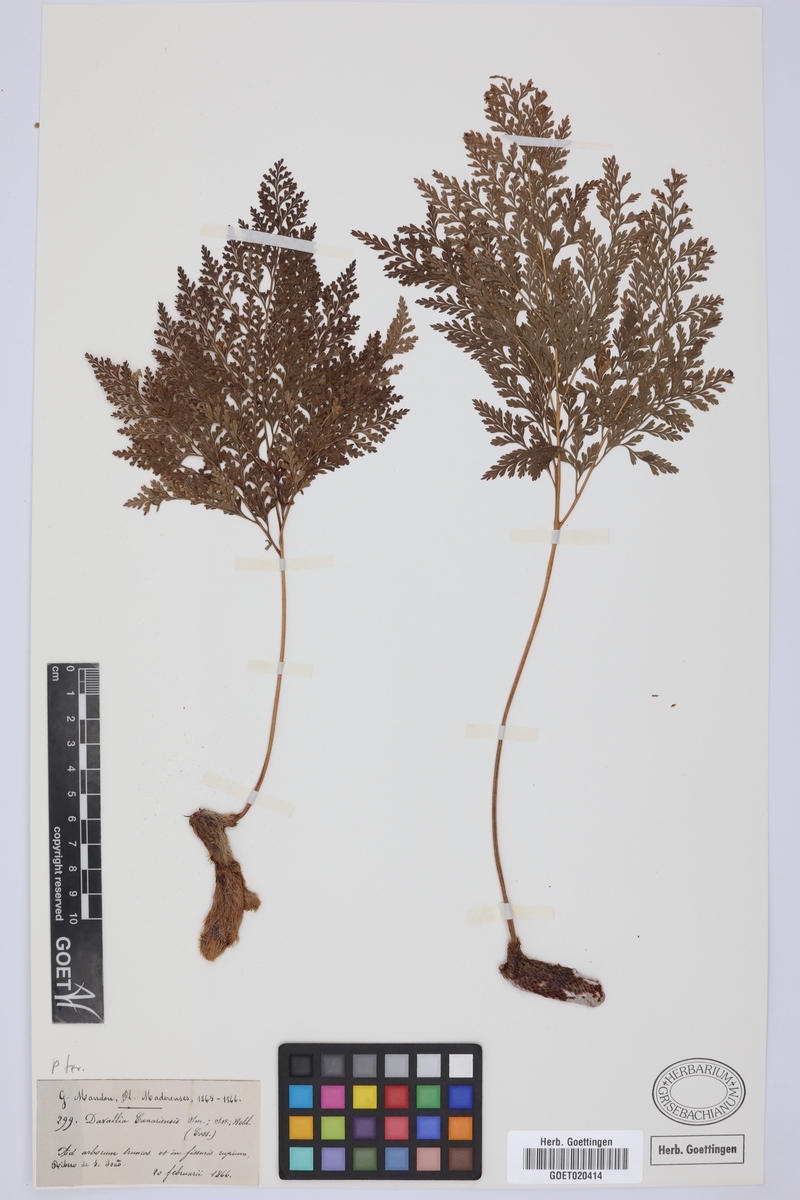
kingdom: Plantae
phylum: Tracheophyta
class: Polypodiopsida
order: Polypodiales
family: Davalliaceae
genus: Davallia
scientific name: Davallia canariensis
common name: Hare's-foot fern
